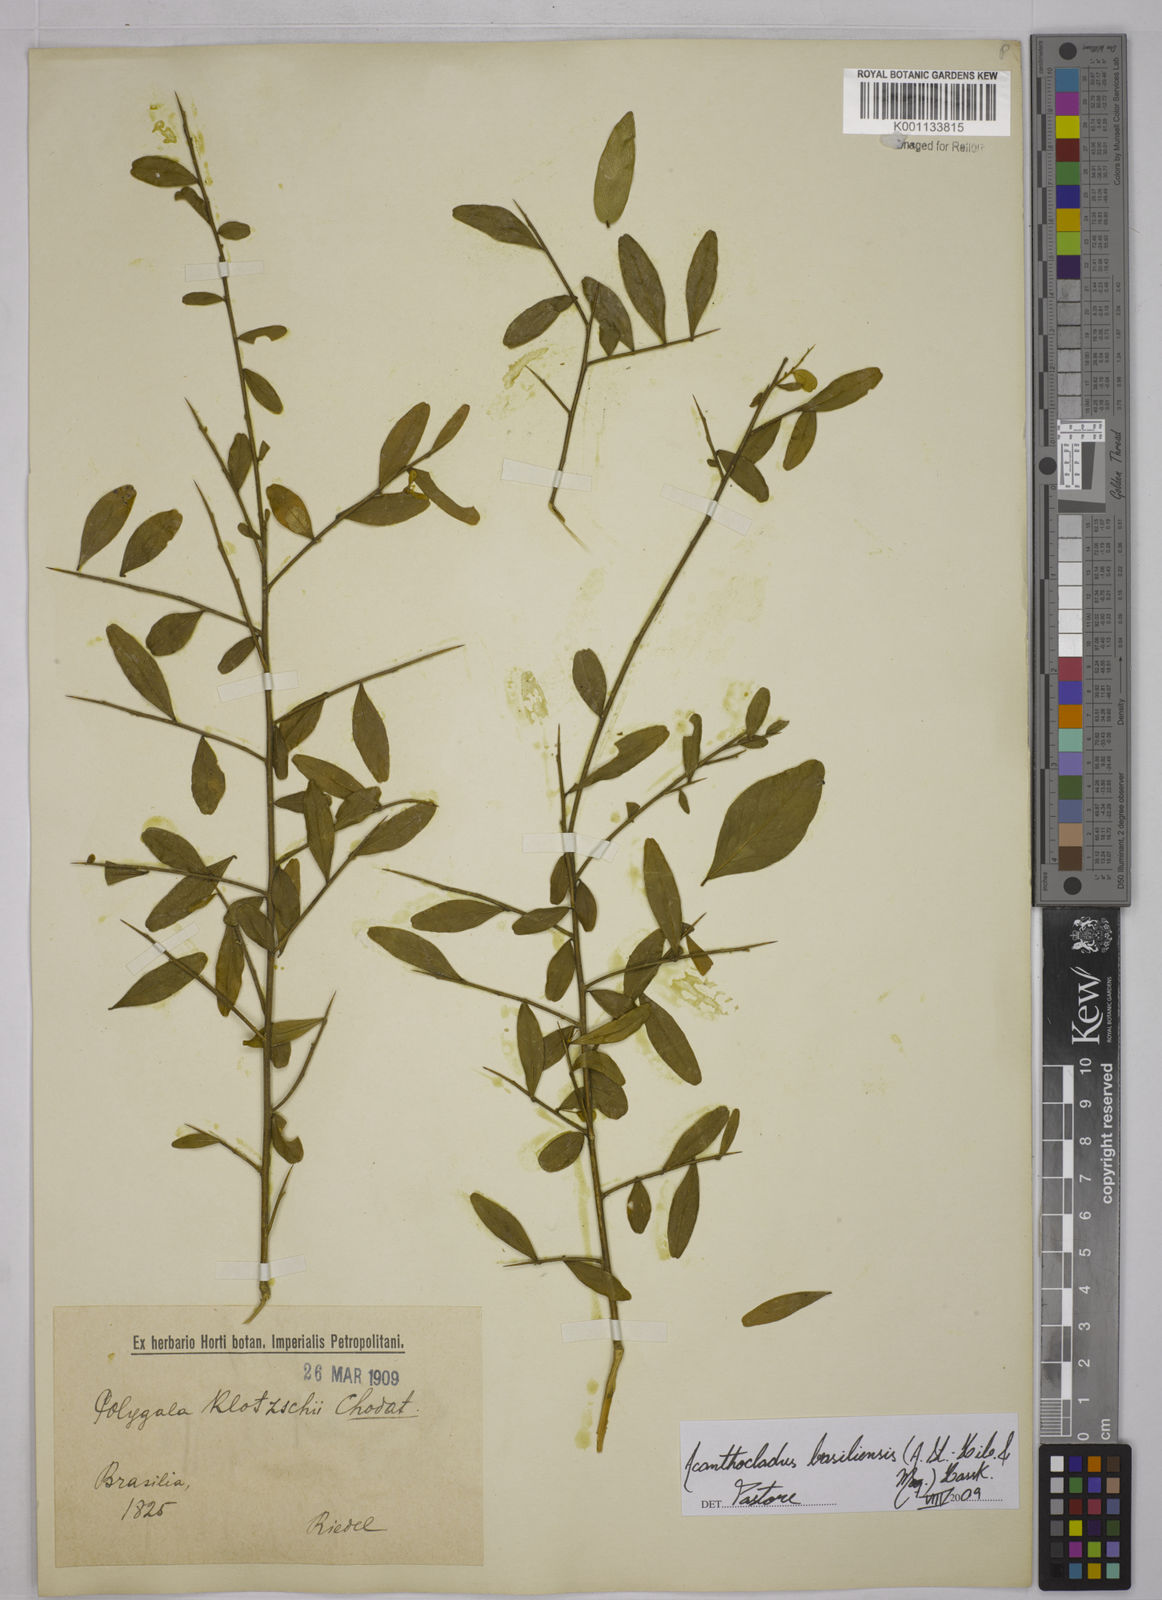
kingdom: Plantae
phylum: Tracheophyta
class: Magnoliopsida
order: Fabales
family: Polygalaceae
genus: Acanthocladus
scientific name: Acanthocladus brasiliensis
